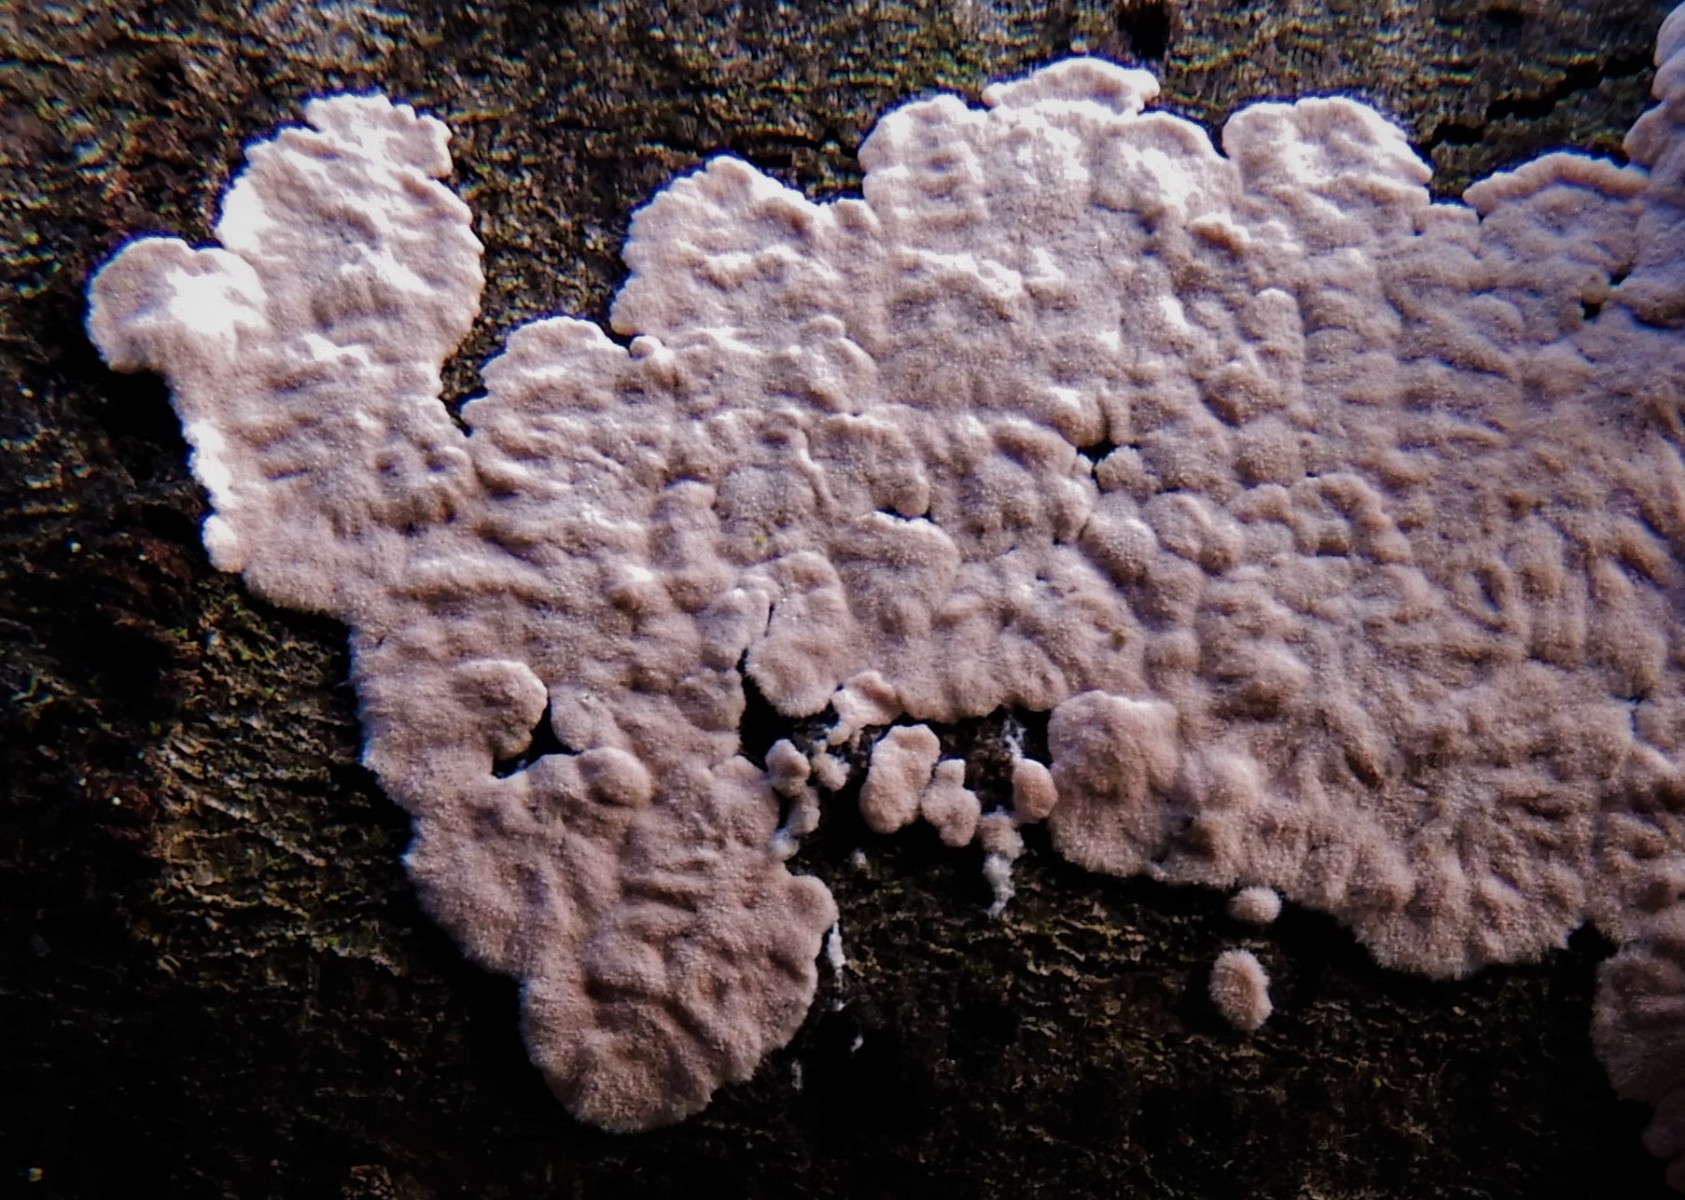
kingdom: Fungi
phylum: Basidiomycota
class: Agaricomycetes
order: Corticiales
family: Corticiaceae
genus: Corticium
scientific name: Corticium roseum
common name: rosa barkskind
